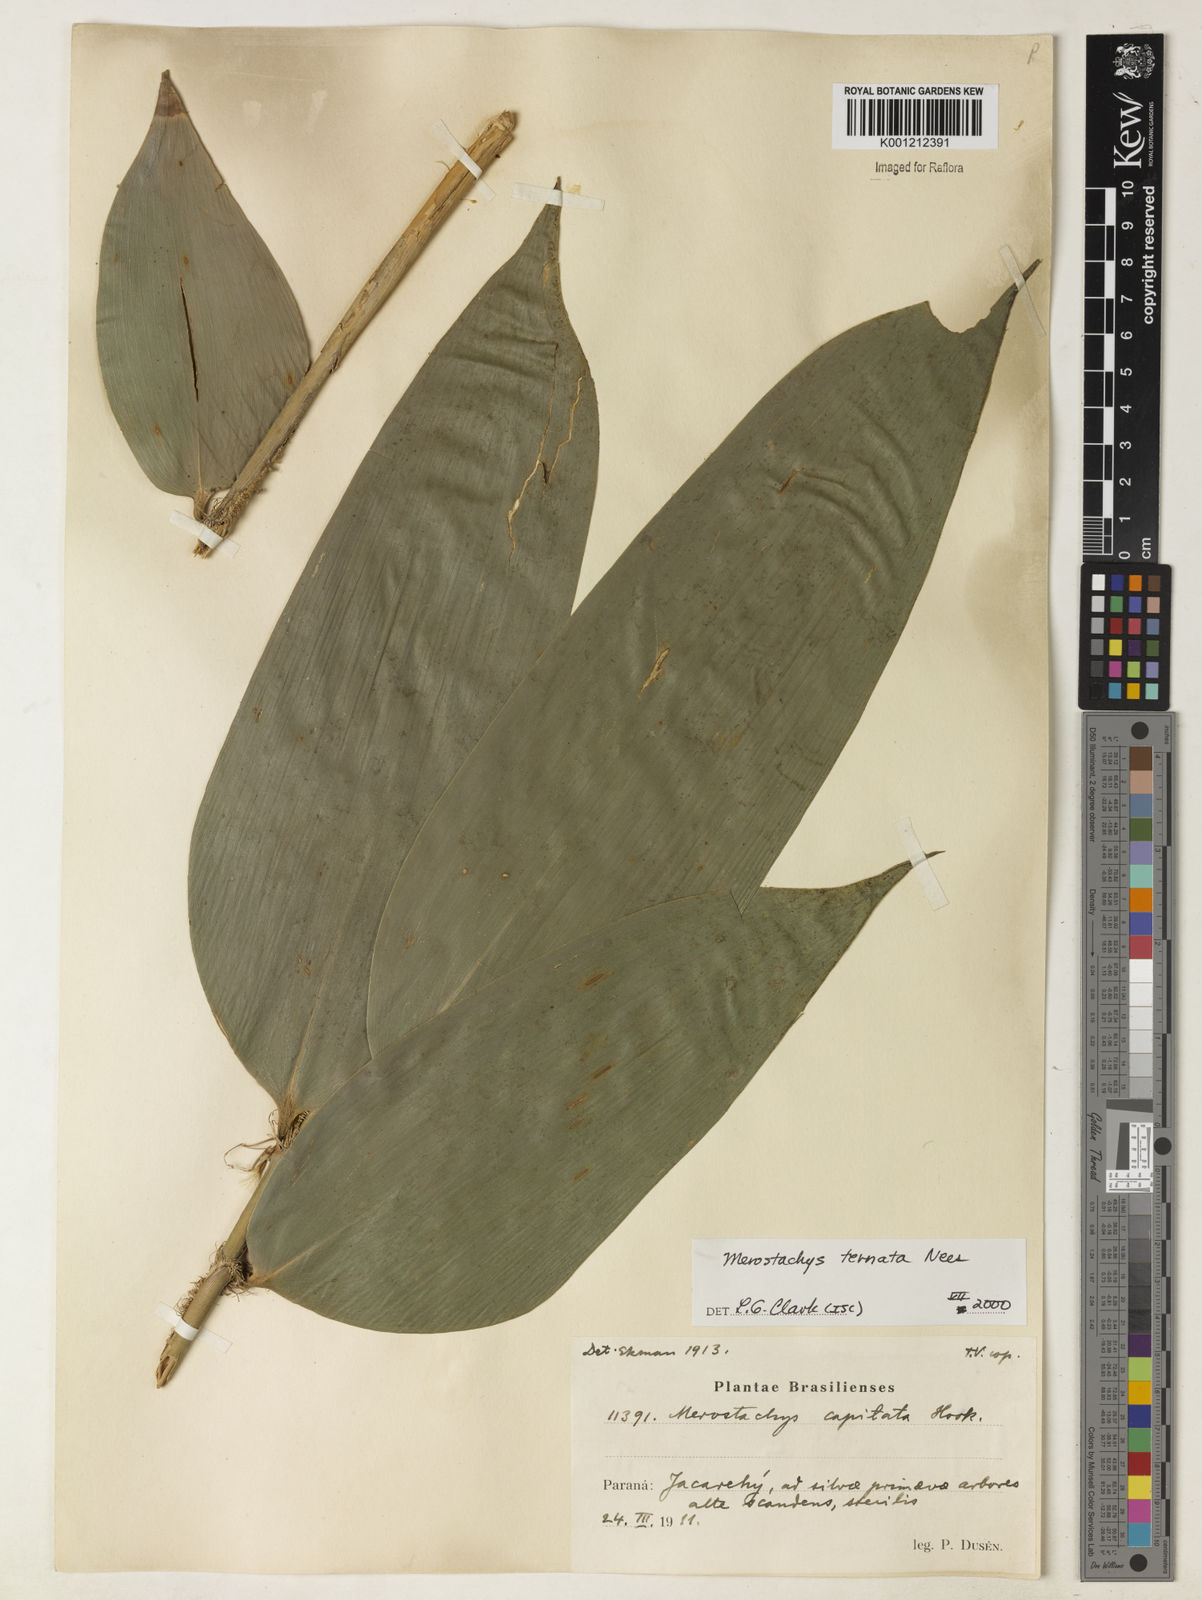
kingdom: Plantae
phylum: Tracheophyta
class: Liliopsida
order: Poales
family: Poaceae
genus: Merostachys
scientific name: Merostachys ternata
